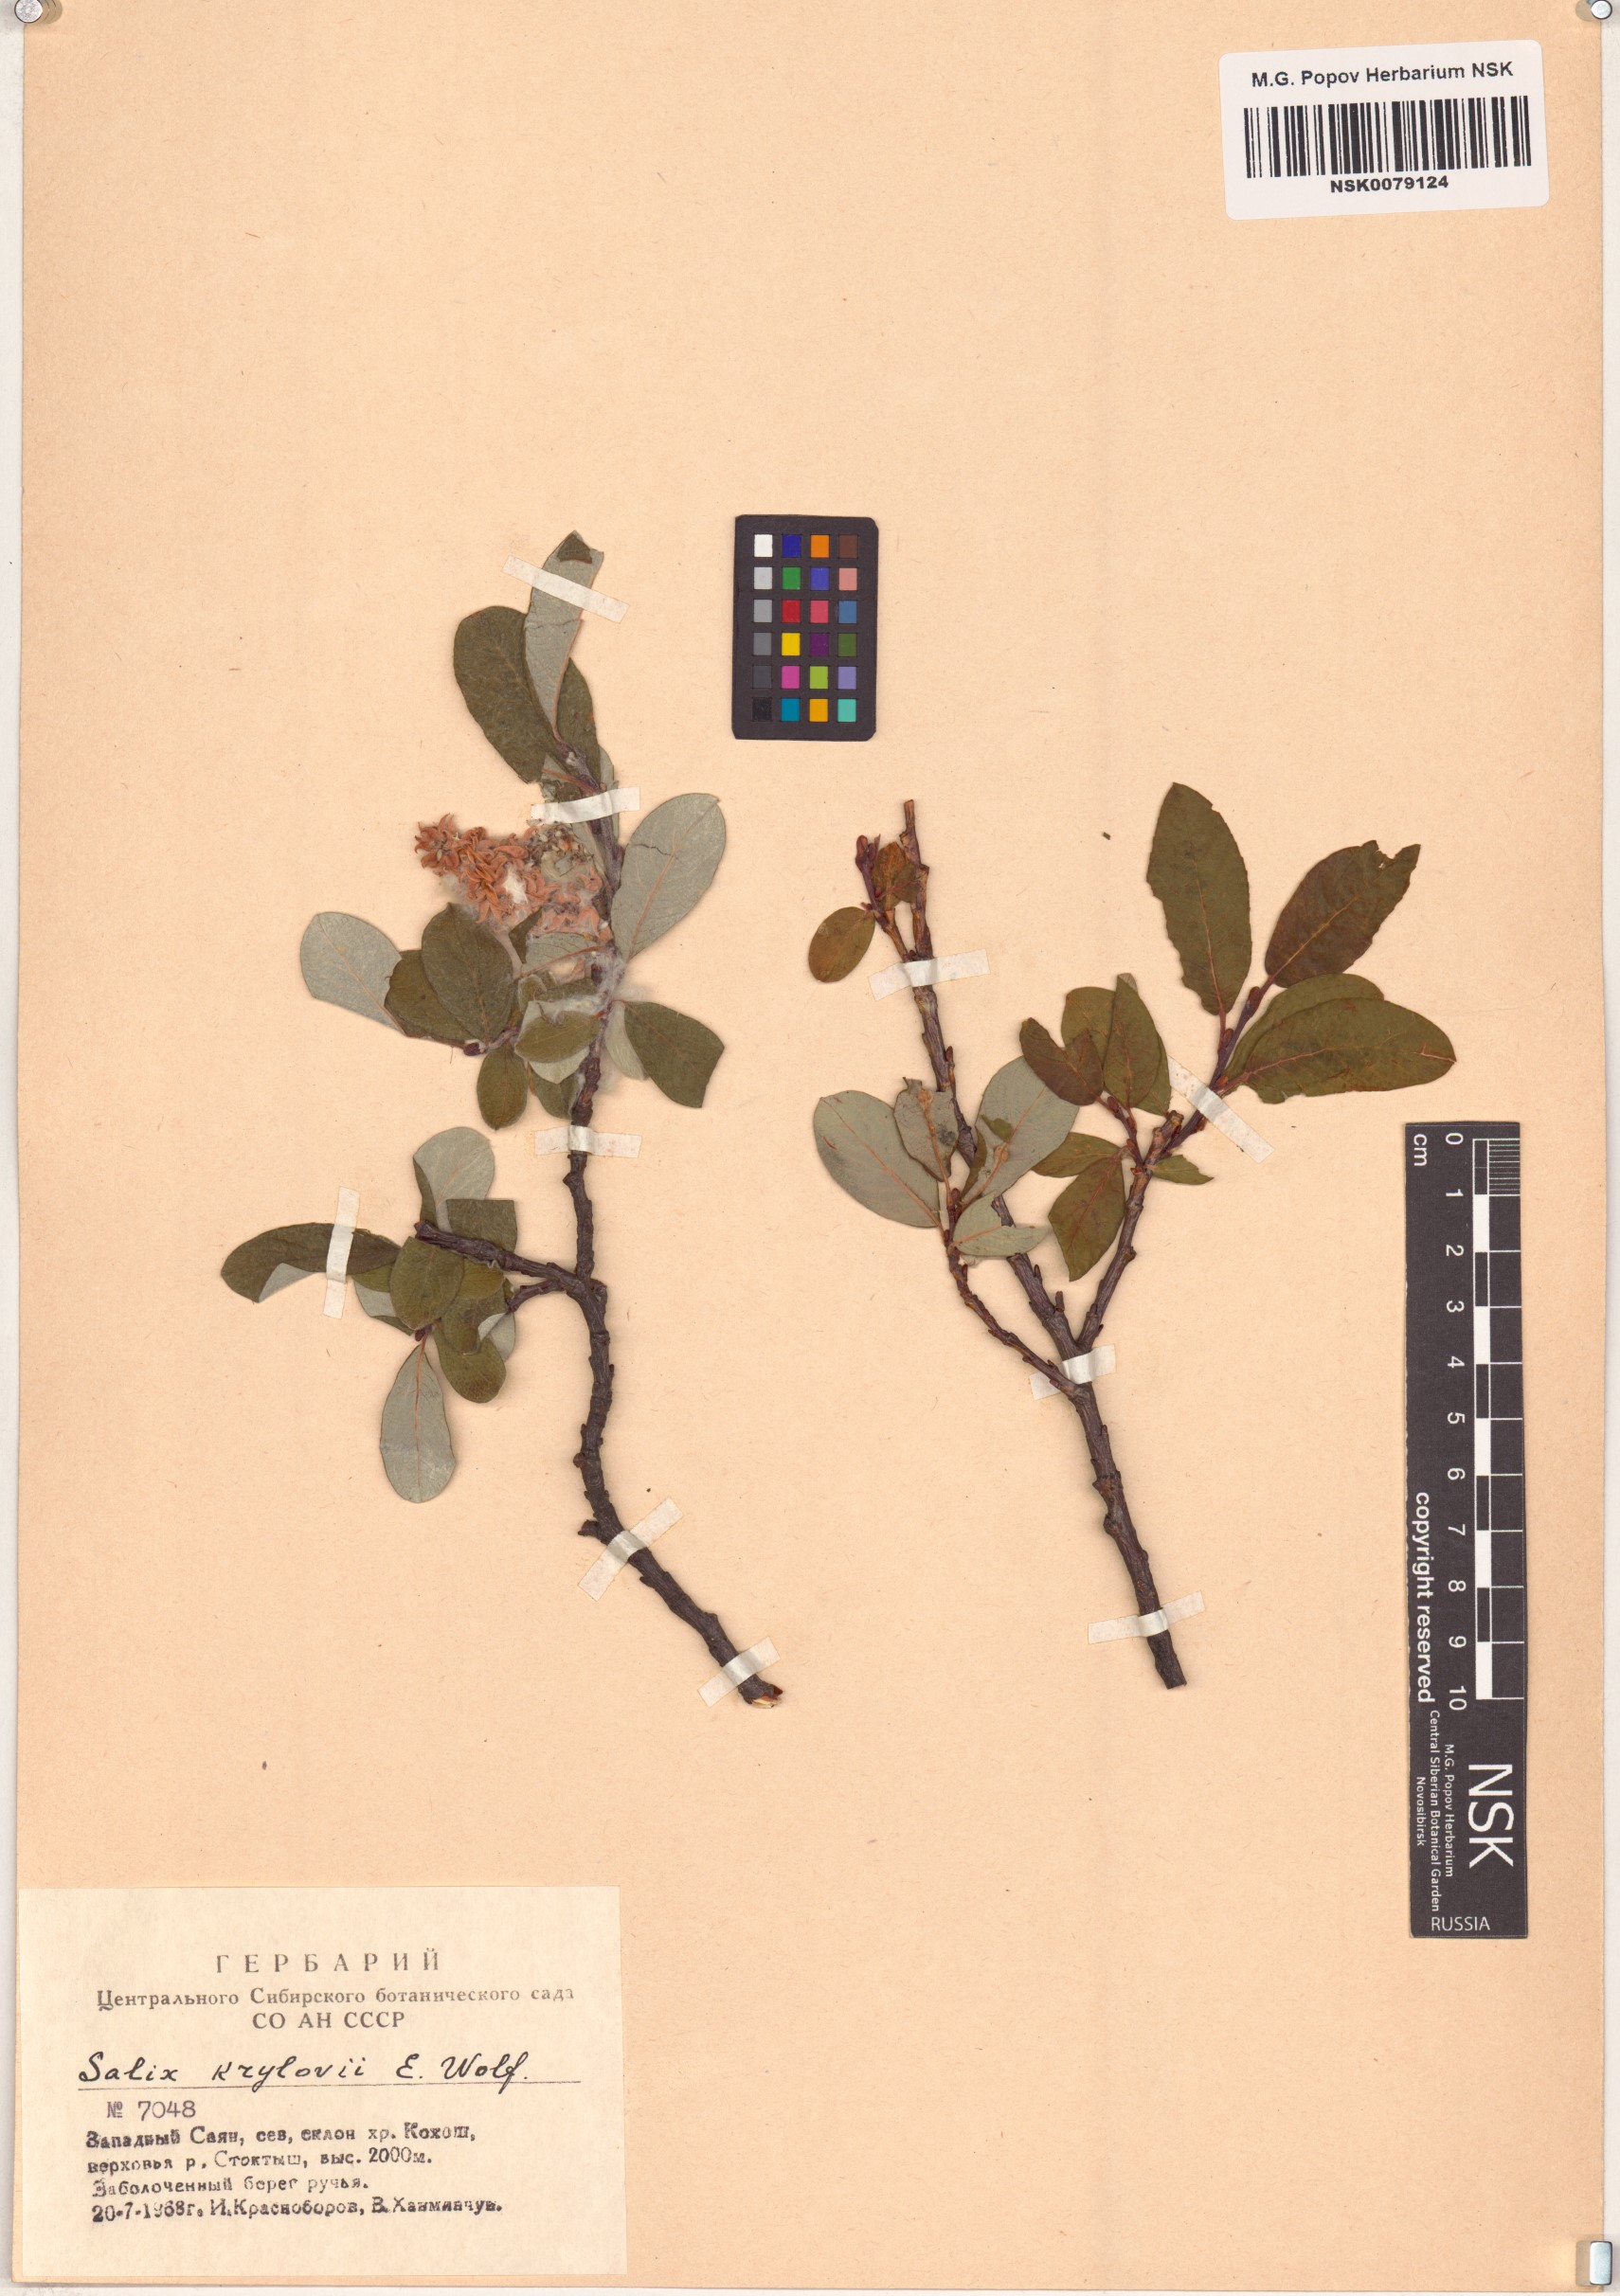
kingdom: Plantae
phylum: Tracheophyta
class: Magnoliopsida
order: Malpighiales
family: Salicaceae
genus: Salix
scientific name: Salix krylovii
